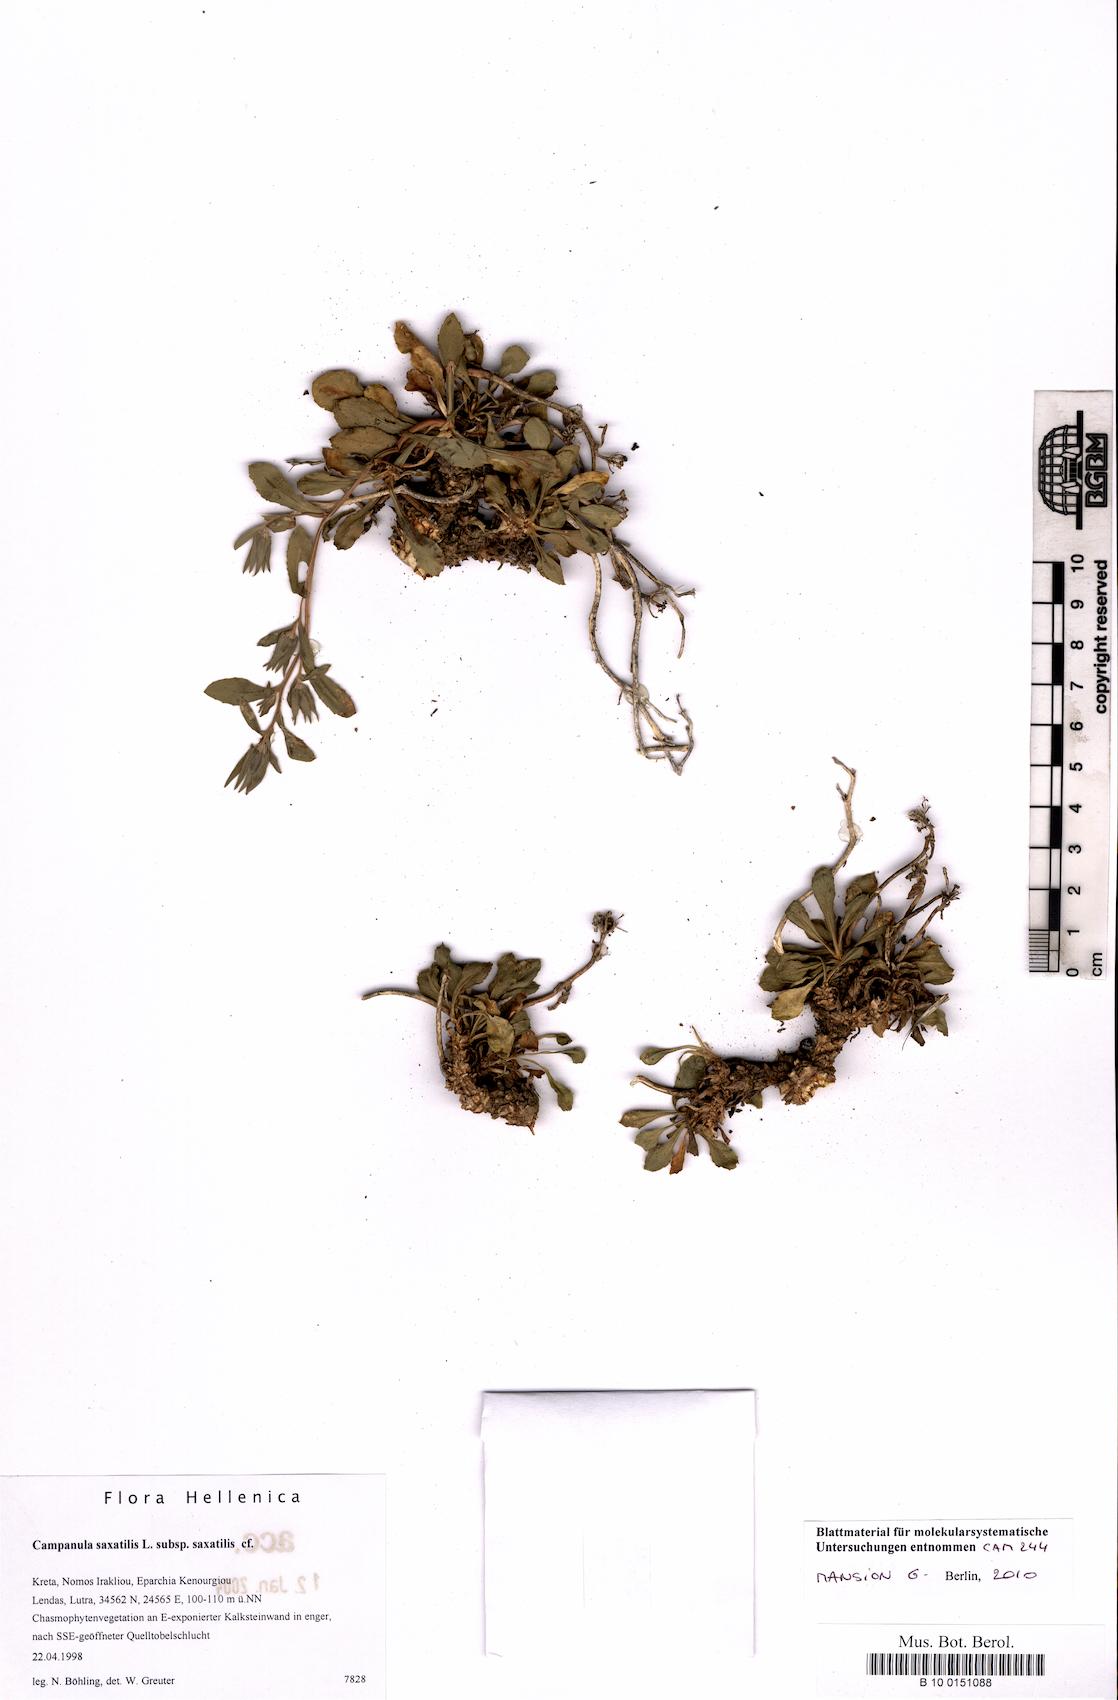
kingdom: Plantae
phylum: Tracheophyta
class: Magnoliopsida
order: Asterales
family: Campanulaceae
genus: Campanula
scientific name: Campanula saxatilis
